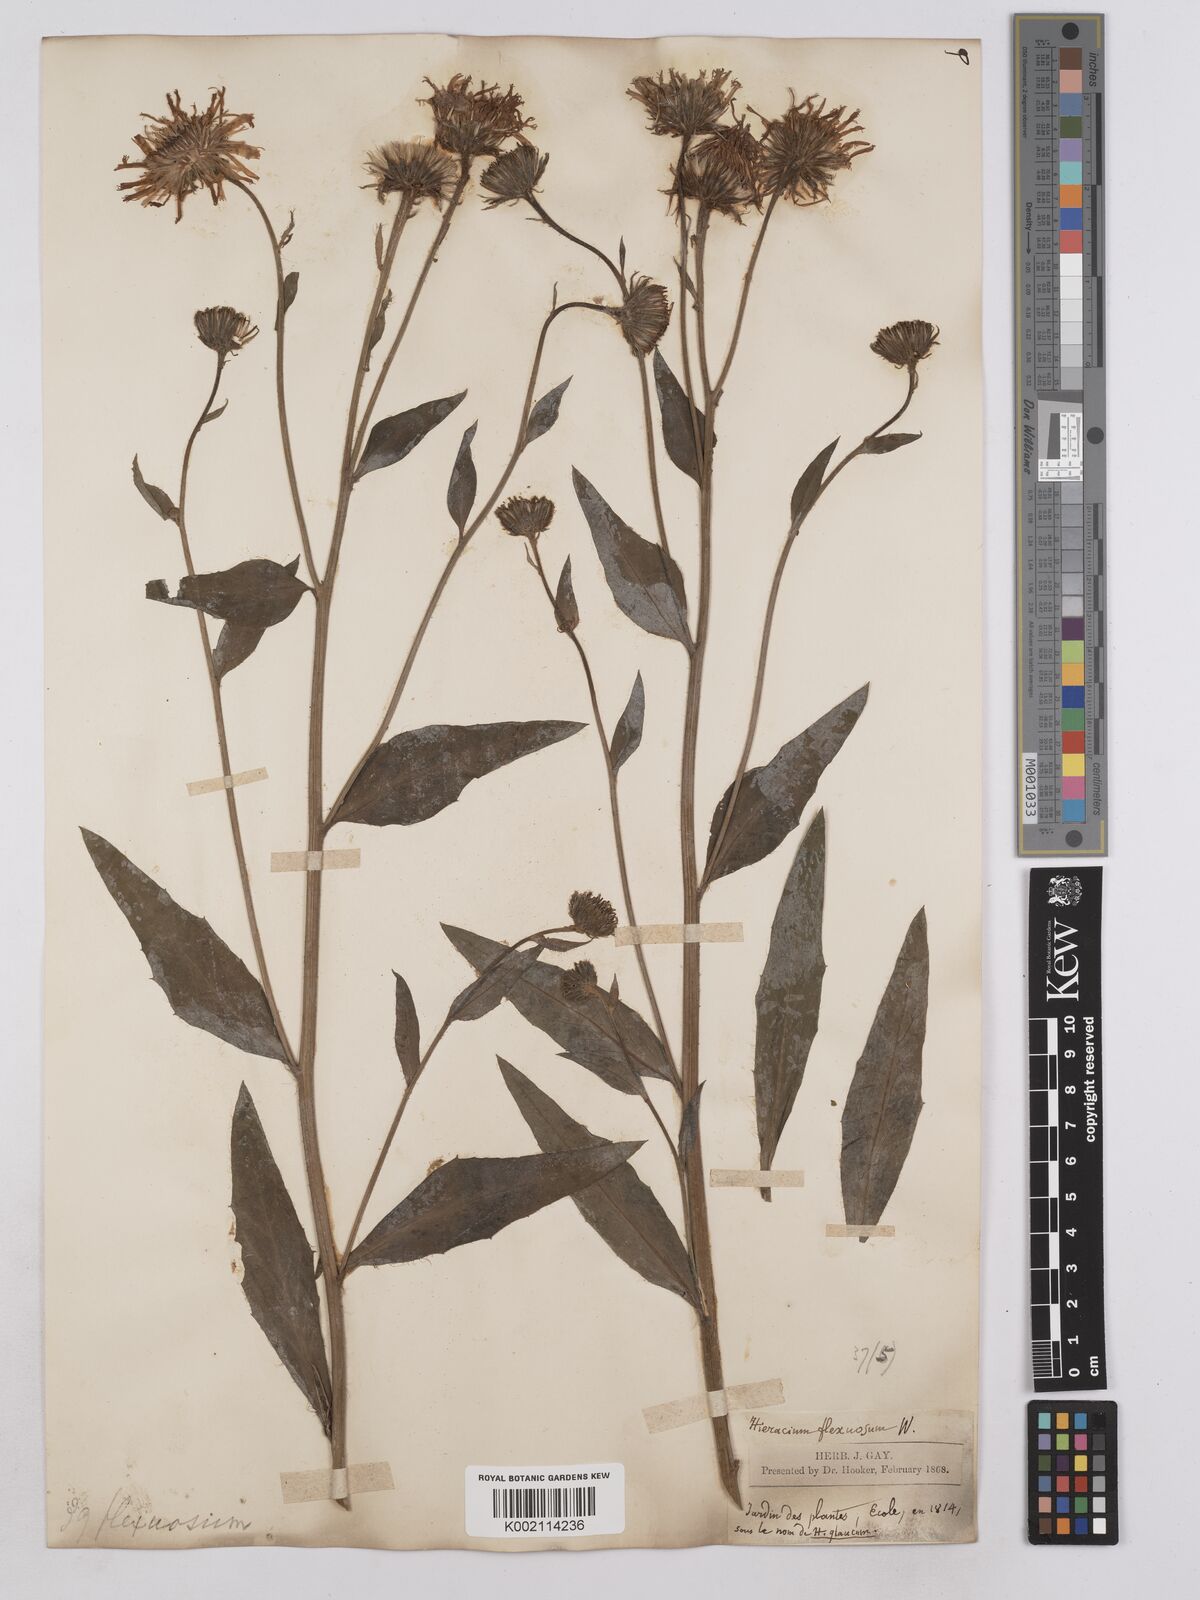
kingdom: Plantae
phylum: Tracheophyta
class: Magnoliopsida
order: Asterales
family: Asteraceae
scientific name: Asteraceae
